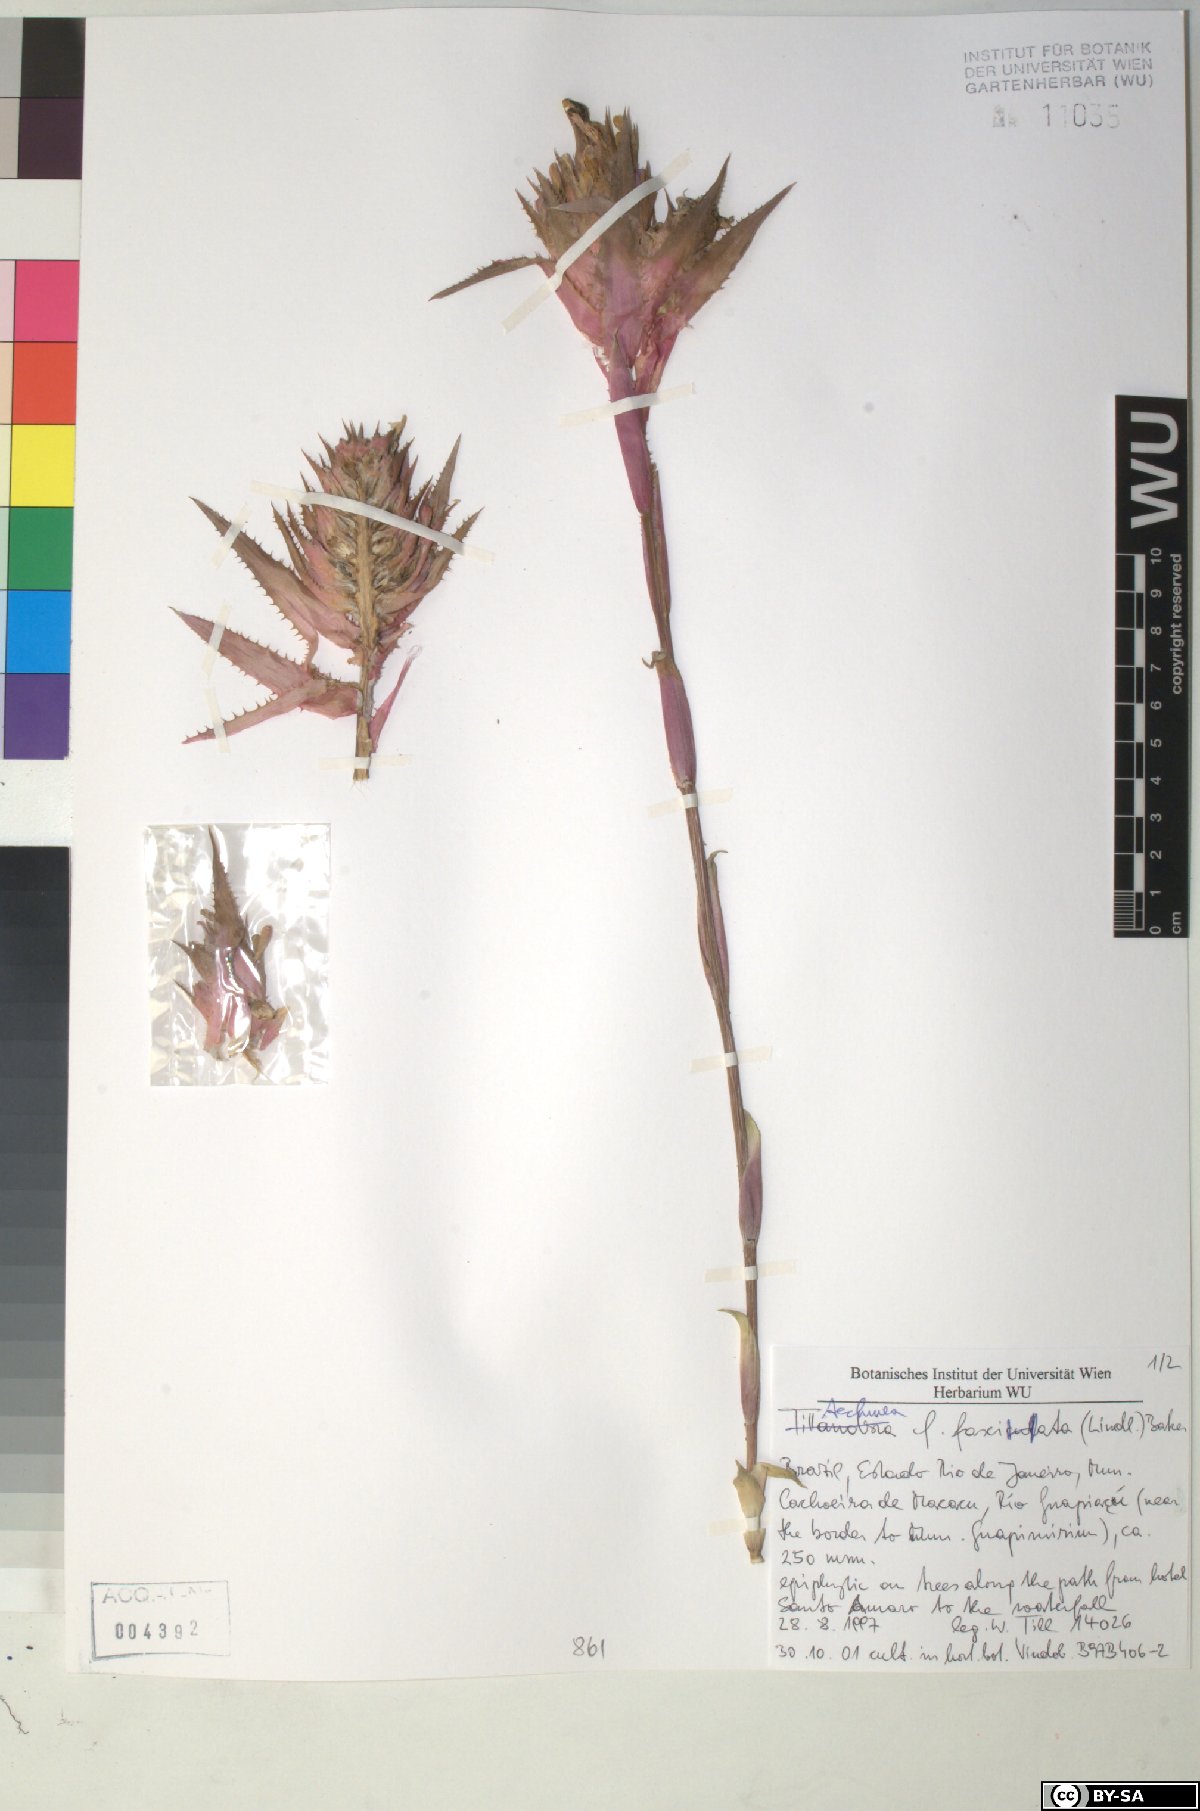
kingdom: Plantae
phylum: Tracheophyta
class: Liliopsida
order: Poales
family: Bromeliaceae
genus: Aechmea
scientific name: Aechmea fasciata
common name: Urnplant
